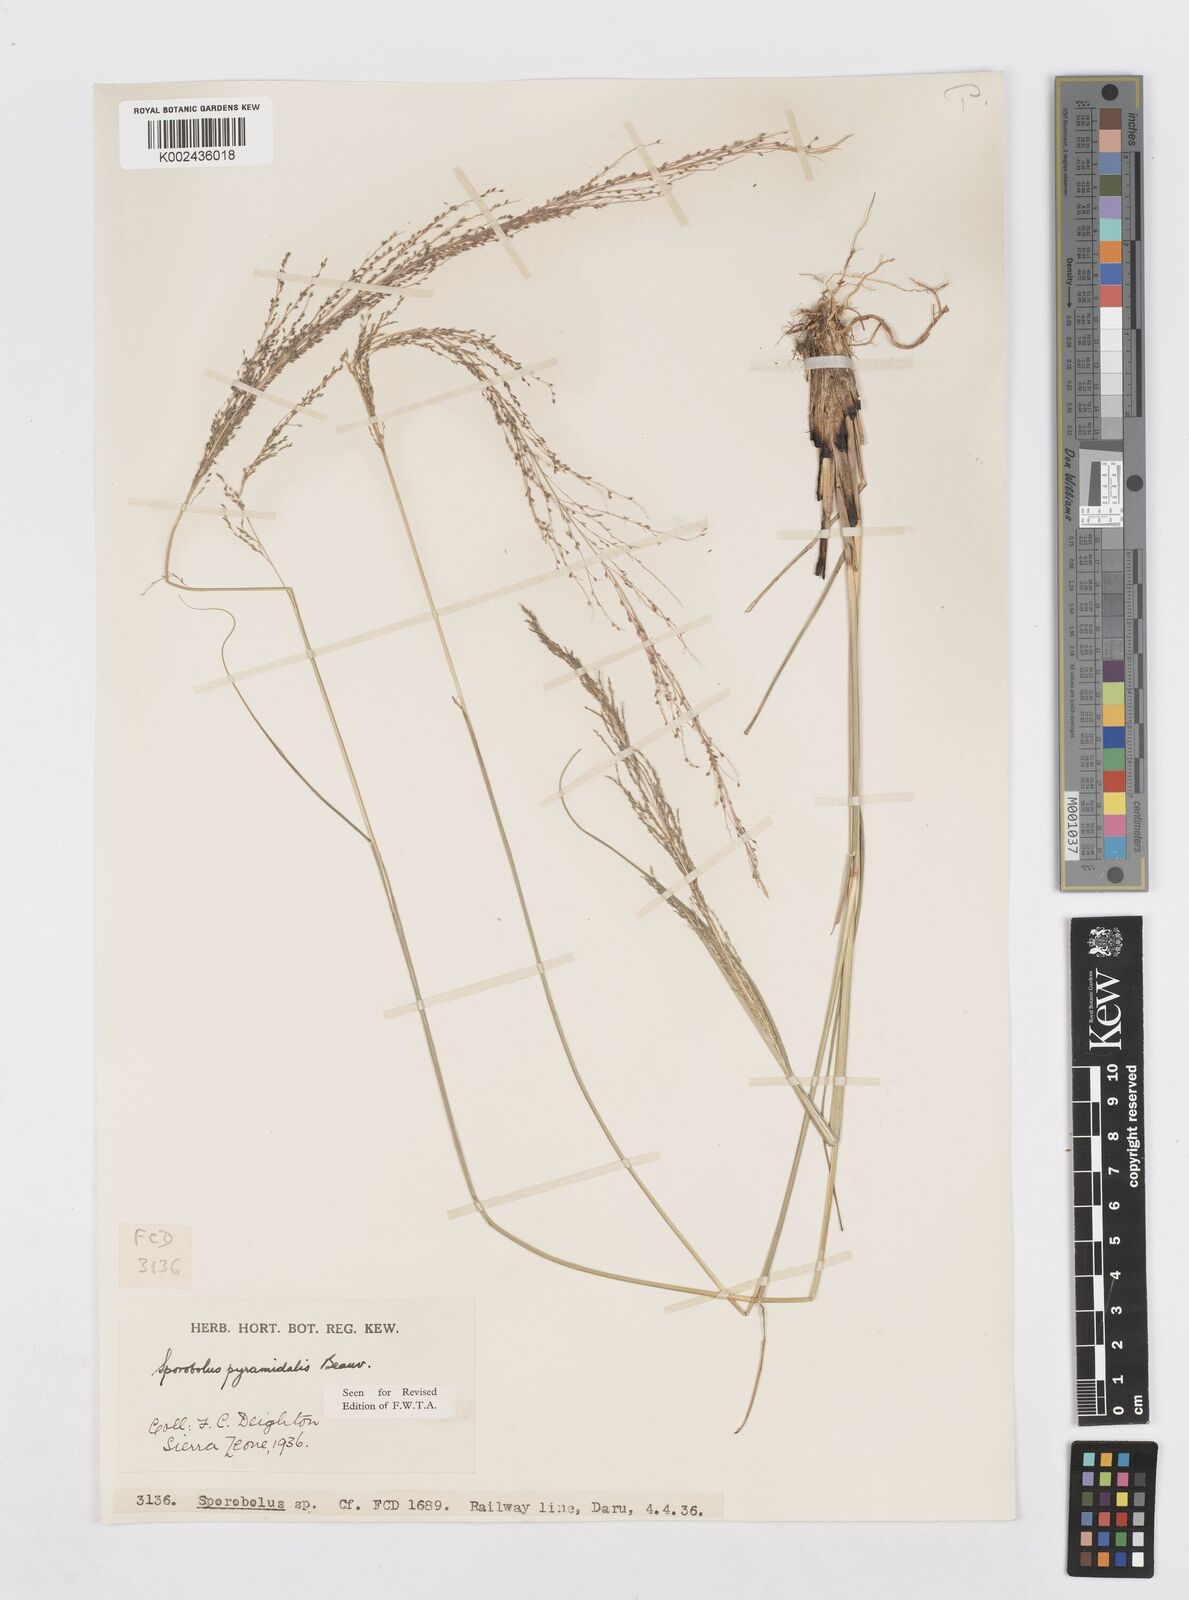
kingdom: Plantae
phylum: Tracheophyta
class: Liliopsida
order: Poales
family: Poaceae
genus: Sporobolus
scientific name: Sporobolus pyramidalis
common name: West indian dropseed
